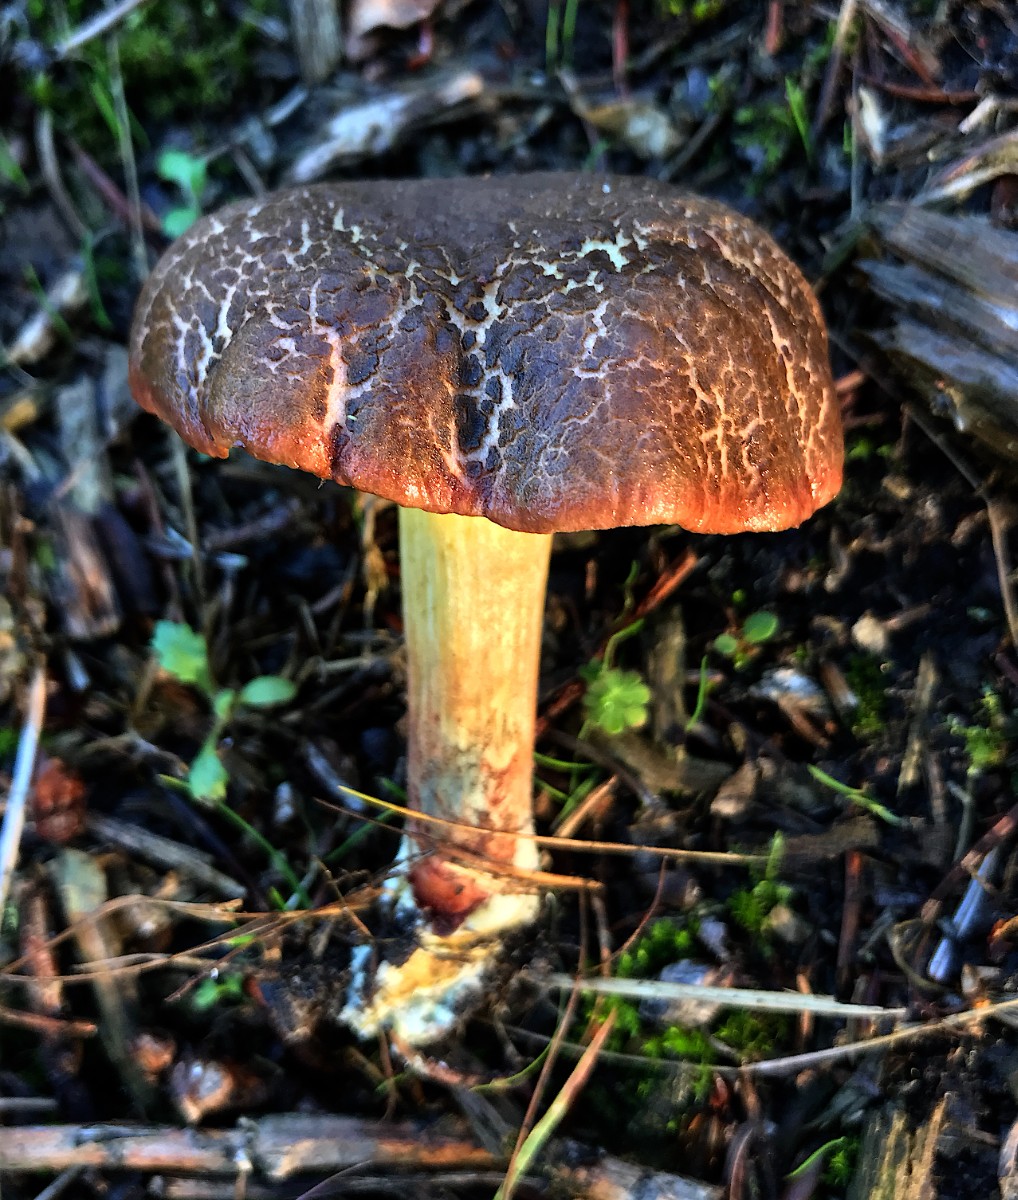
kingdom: Fungi
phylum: Basidiomycota
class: Agaricomycetes
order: Boletales
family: Boletaceae
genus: Xerocomellus
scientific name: Xerocomellus
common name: dværgrørhat
